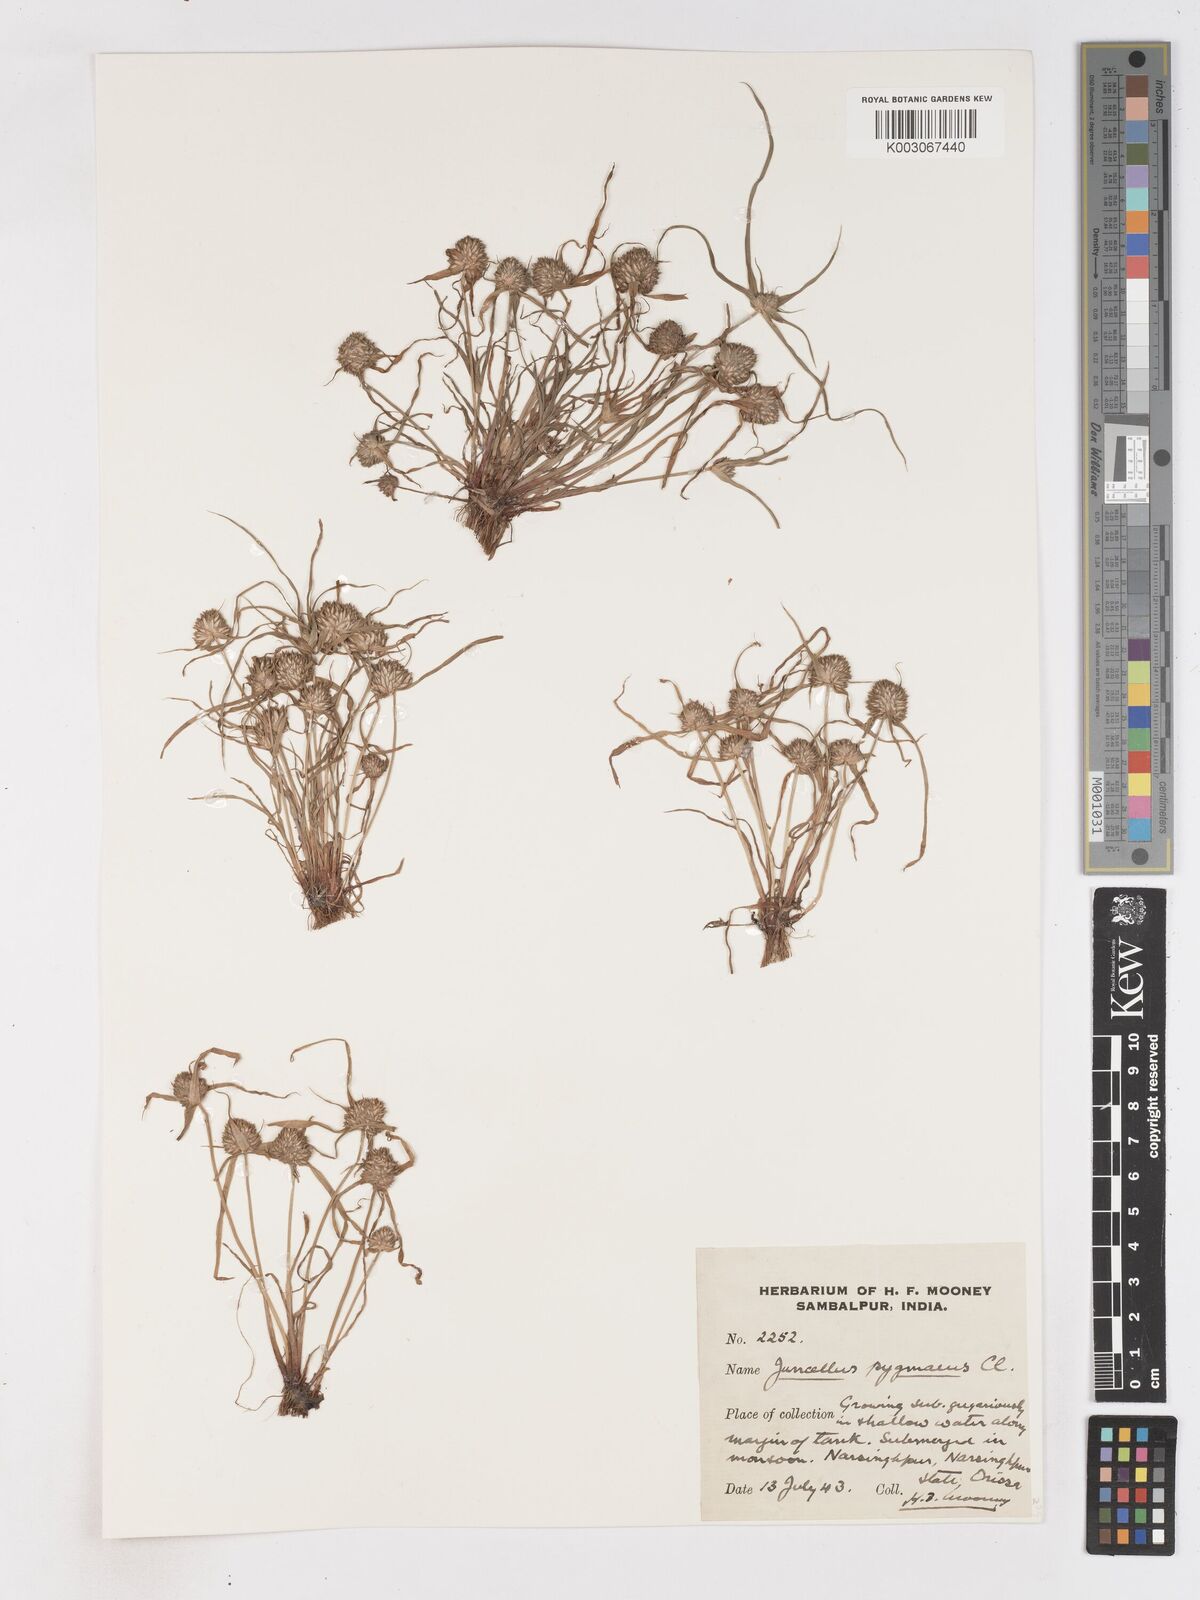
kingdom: Plantae
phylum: Tracheophyta
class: Liliopsida
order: Poales
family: Cyperaceae
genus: Cyperus
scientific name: Cyperus michelianus
